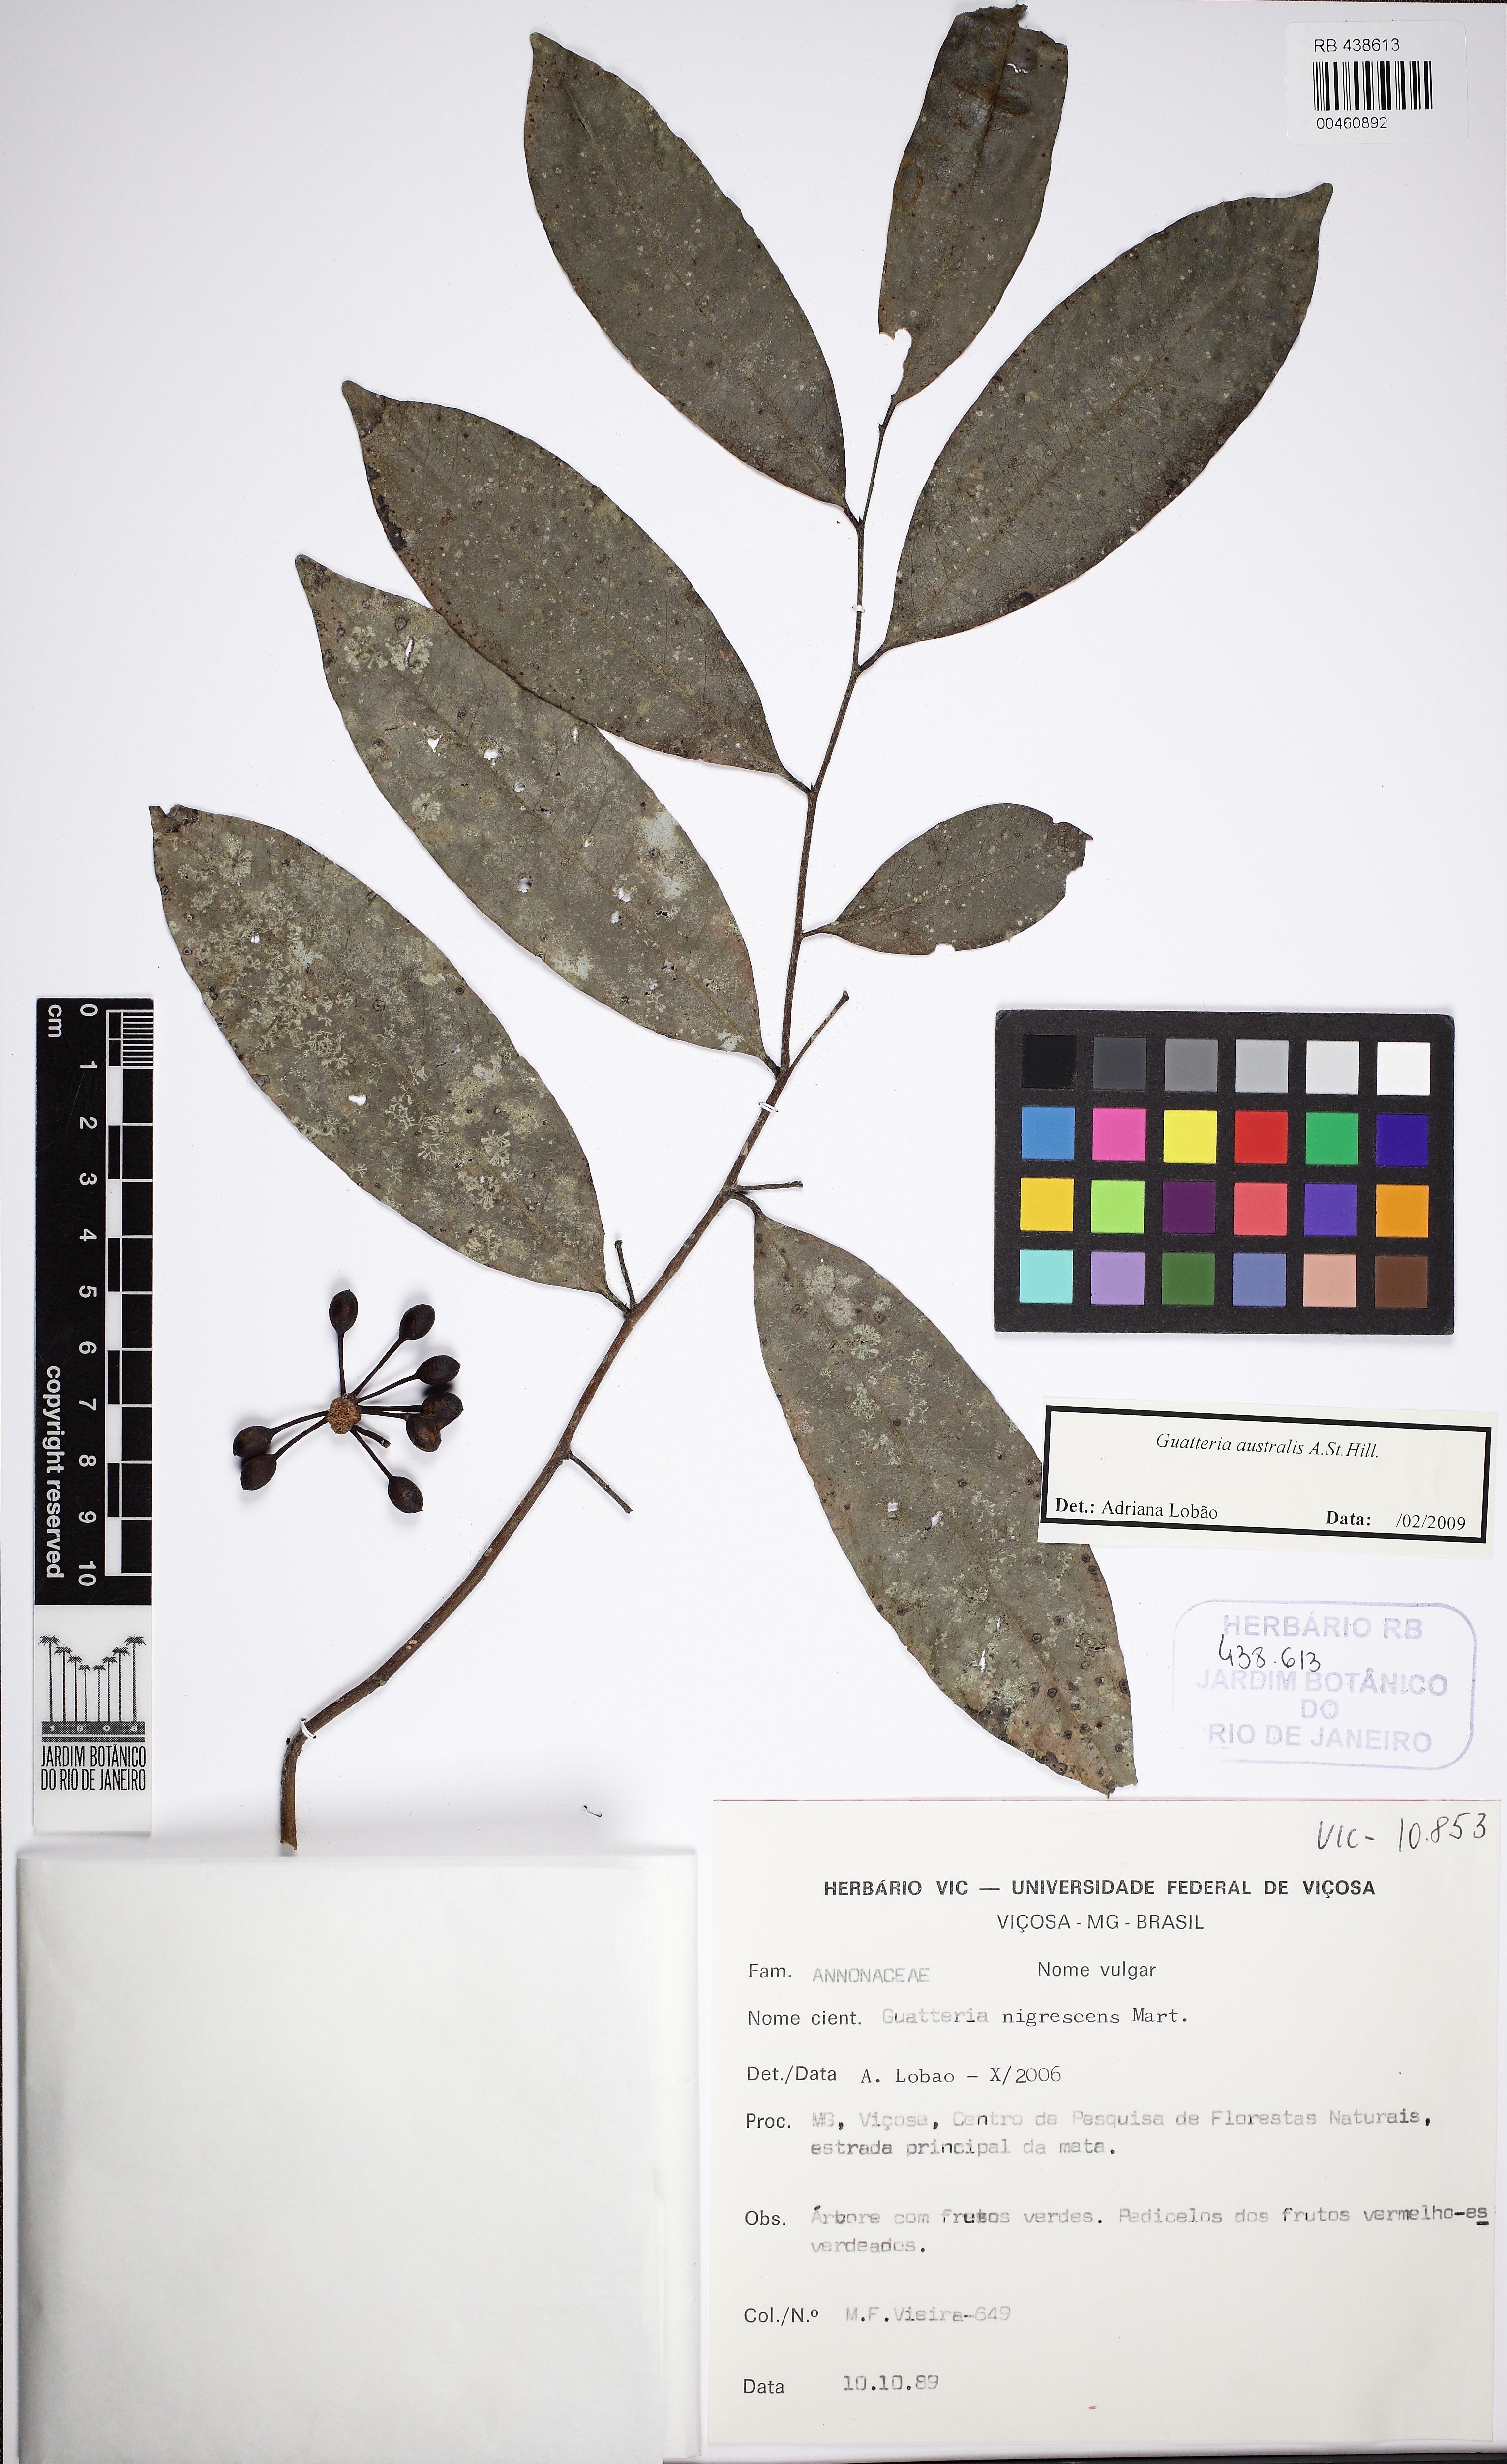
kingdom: Plantae
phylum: Tracheophyta
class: Magnoliopsida
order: Magnoliales
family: Annonaceae
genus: Guatteria
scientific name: Guatteria australis
